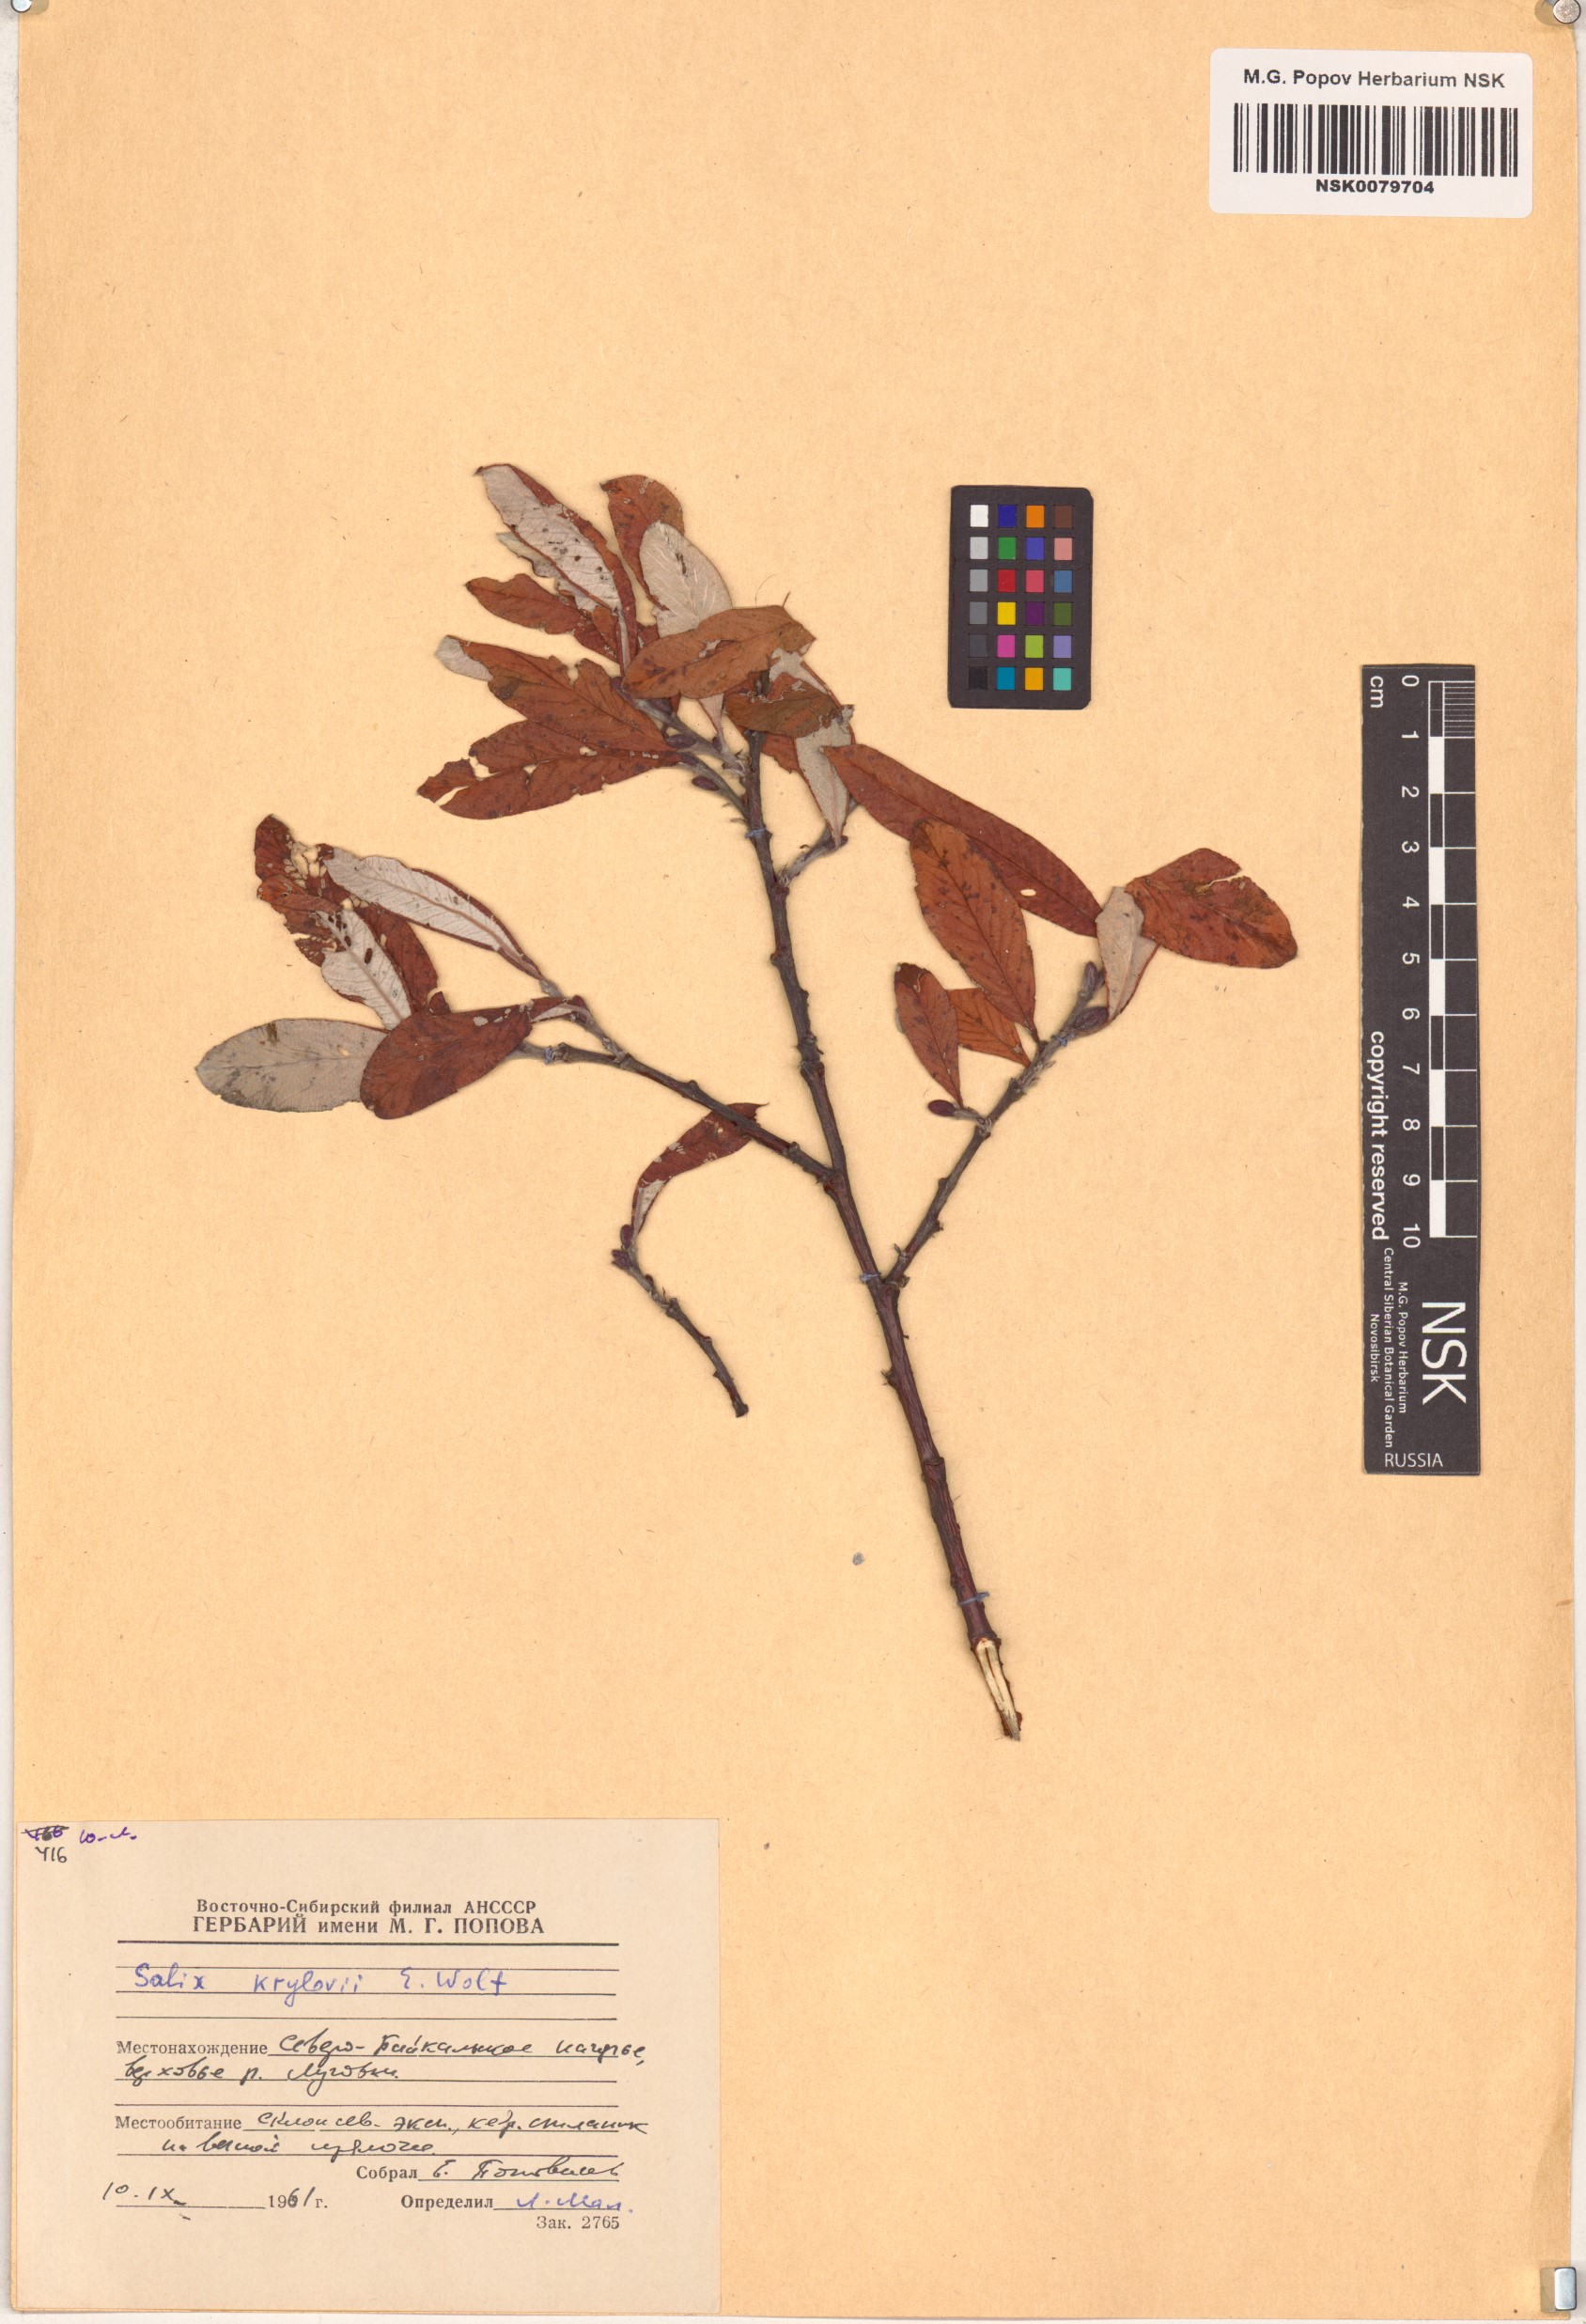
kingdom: Plantae
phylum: Tracheophyta
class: Magnoliopsida
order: Malpighiales
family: Salicaceae
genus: Salix
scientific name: Salix krylovii
